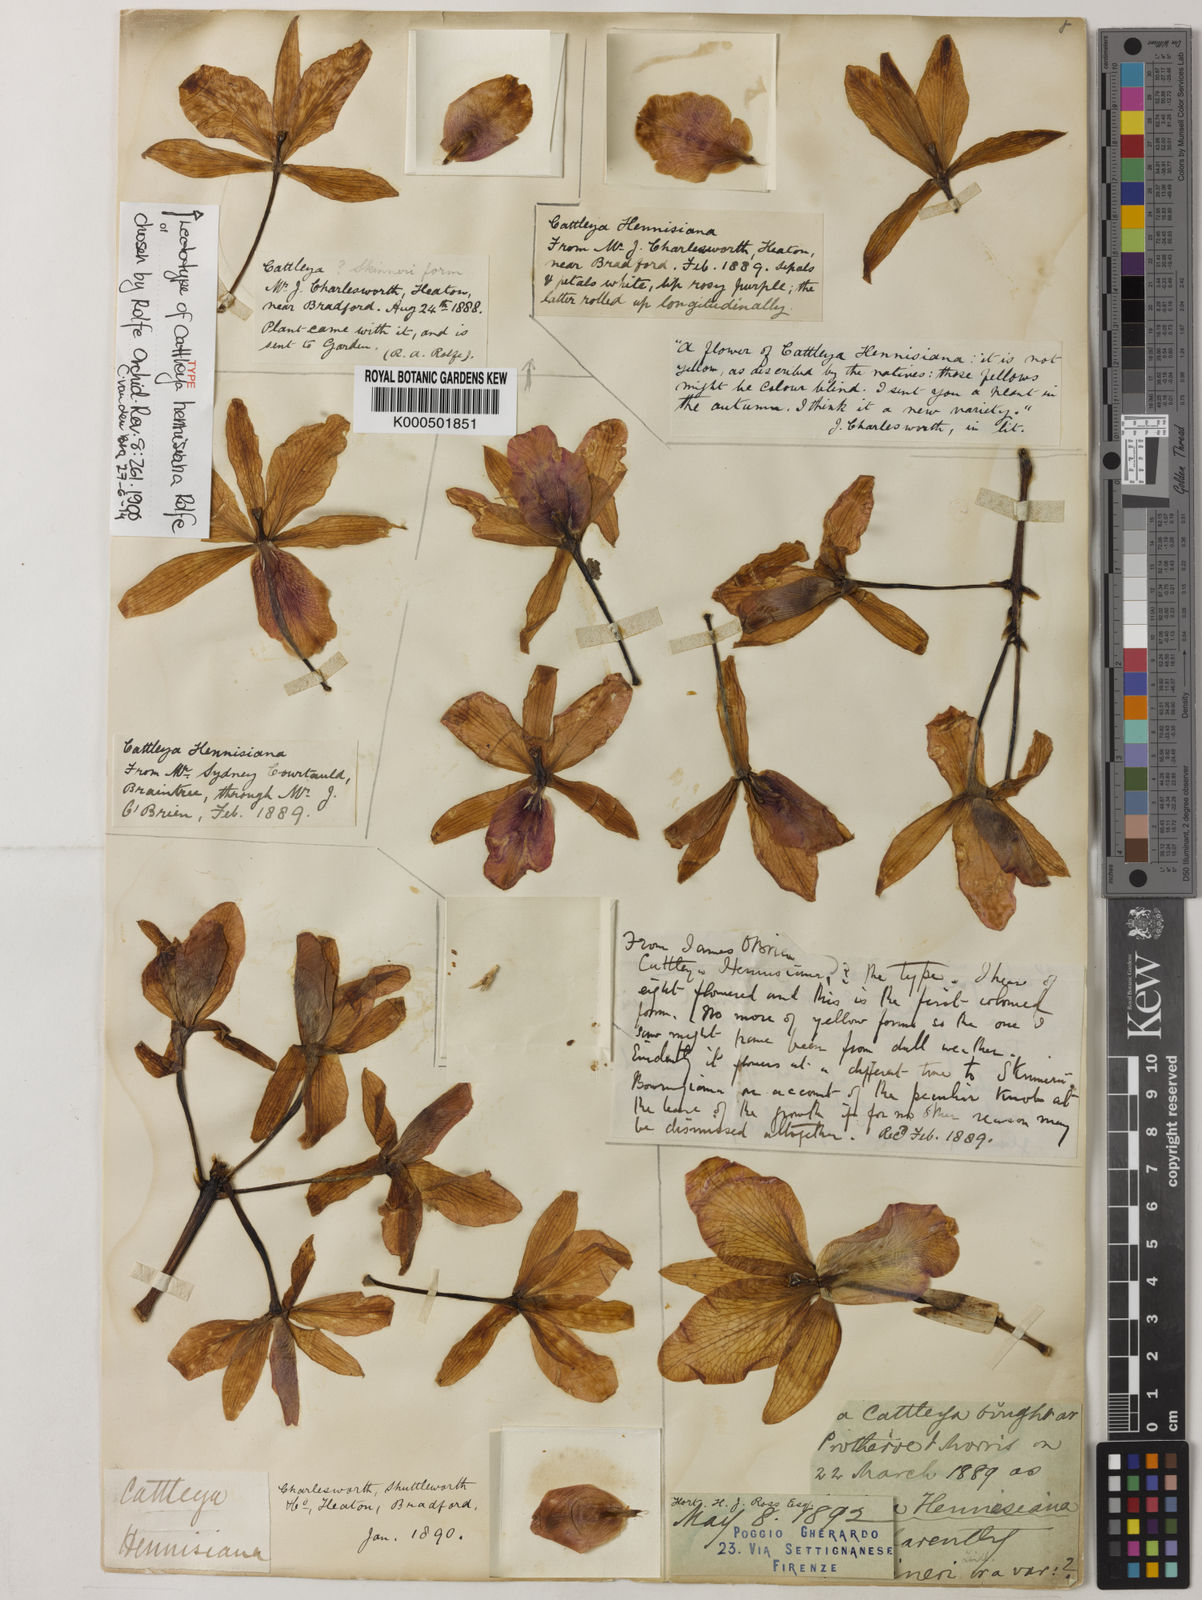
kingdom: Plantae
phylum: Tracheophyta
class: Liliopsida
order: Asparagales
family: Orchidaceae
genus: Guarianthe
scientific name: Guarianthe hennisiana
